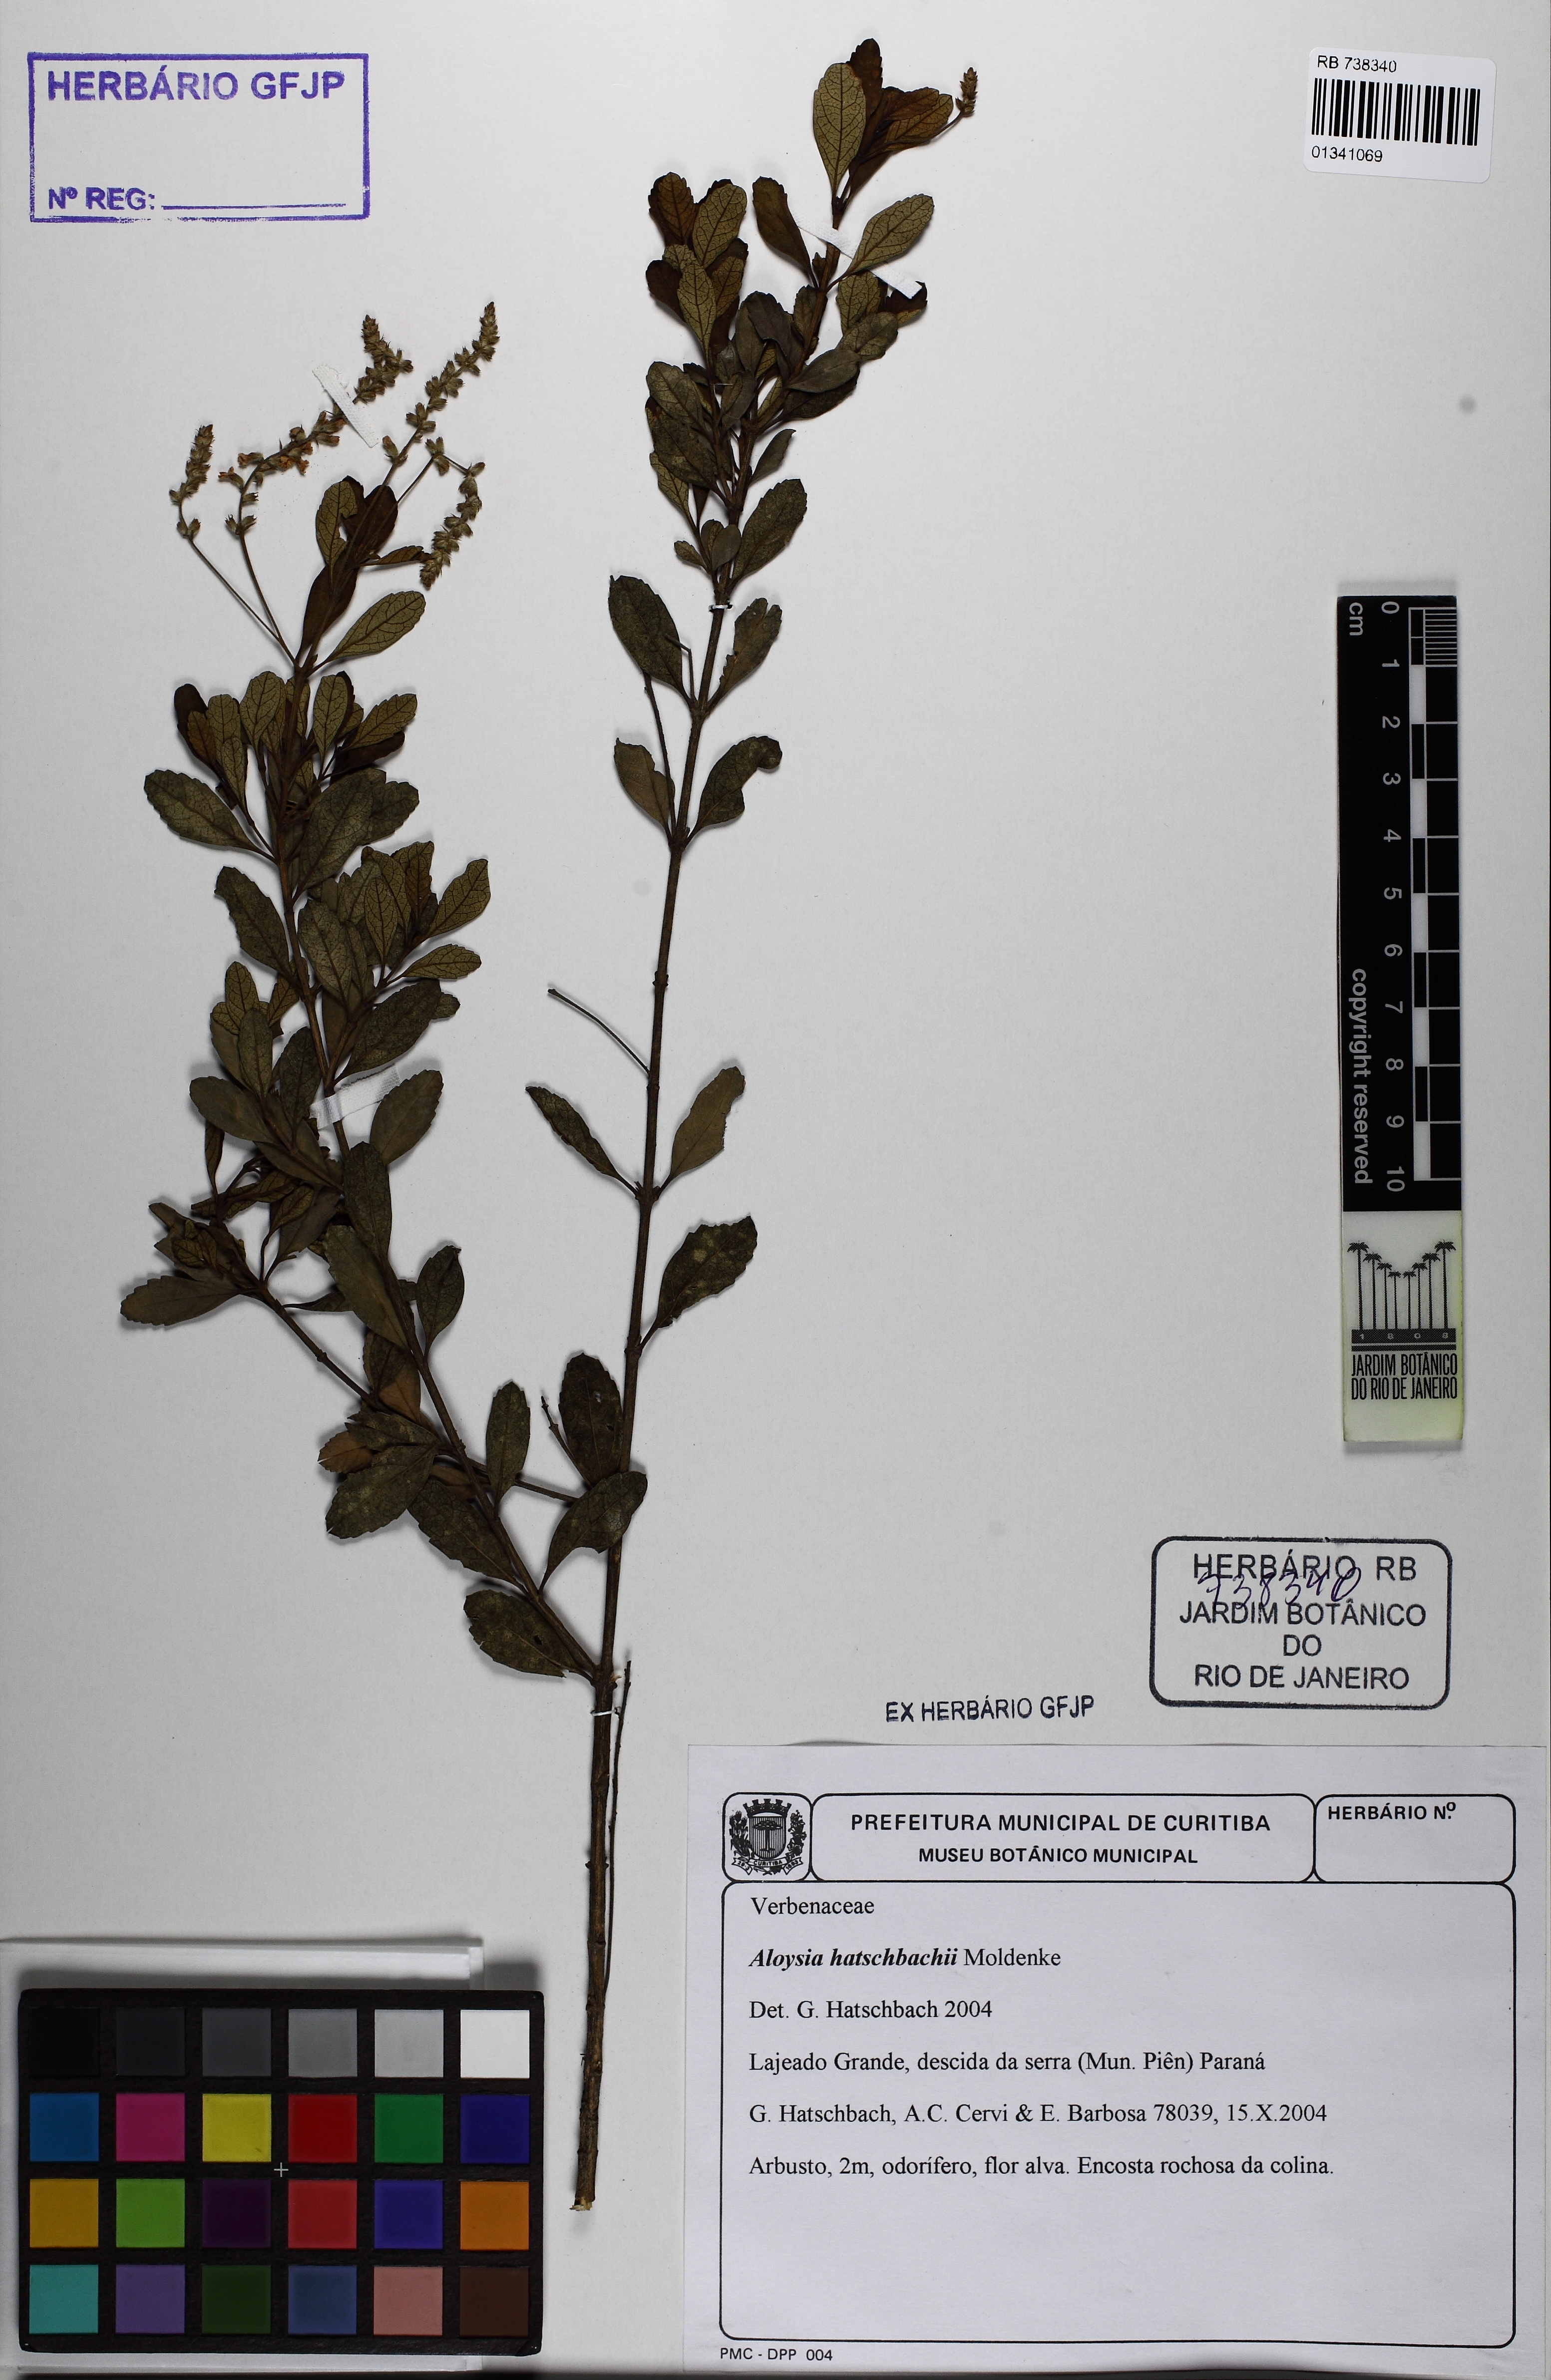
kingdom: Plantae
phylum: Tracheophyta
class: Magnoliopsida
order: Lamiales
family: Verbenaceae
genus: Aloysia
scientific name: Aloysia hatschbachii
